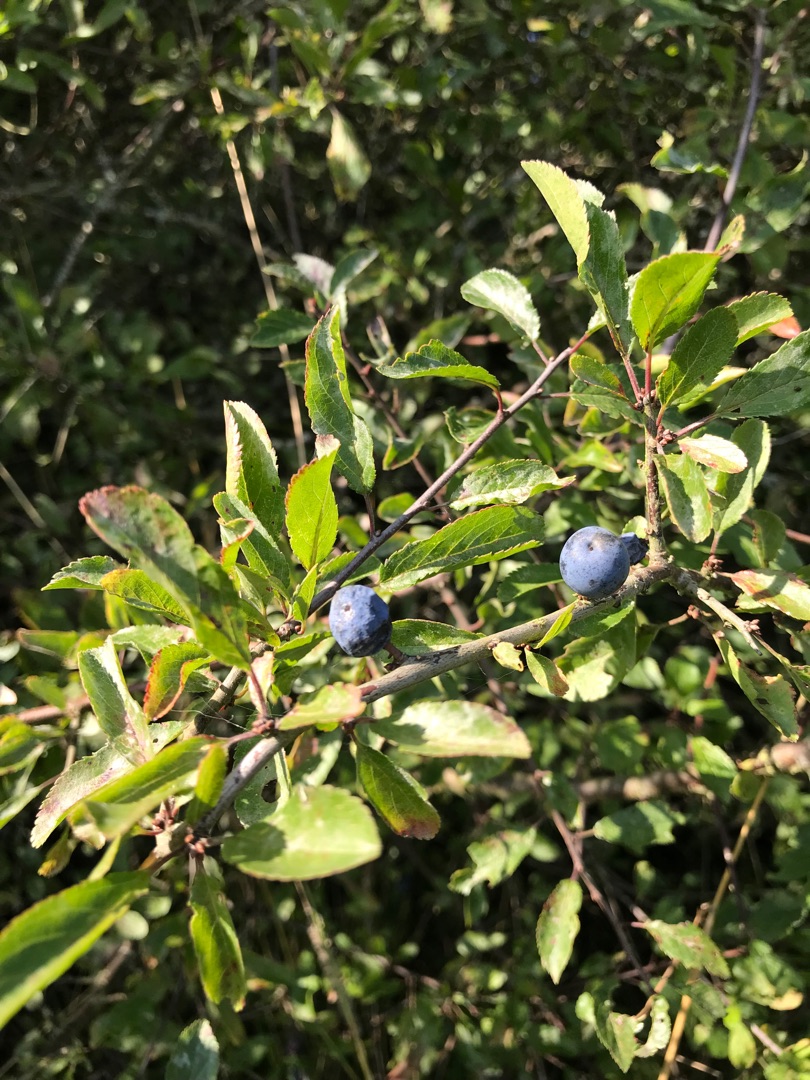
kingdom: Plantae
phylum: Tracheophyta
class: Magnoliopsida
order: Rosales
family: Rosaceae
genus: Prunus
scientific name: Prunus spinosa
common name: Slåen
